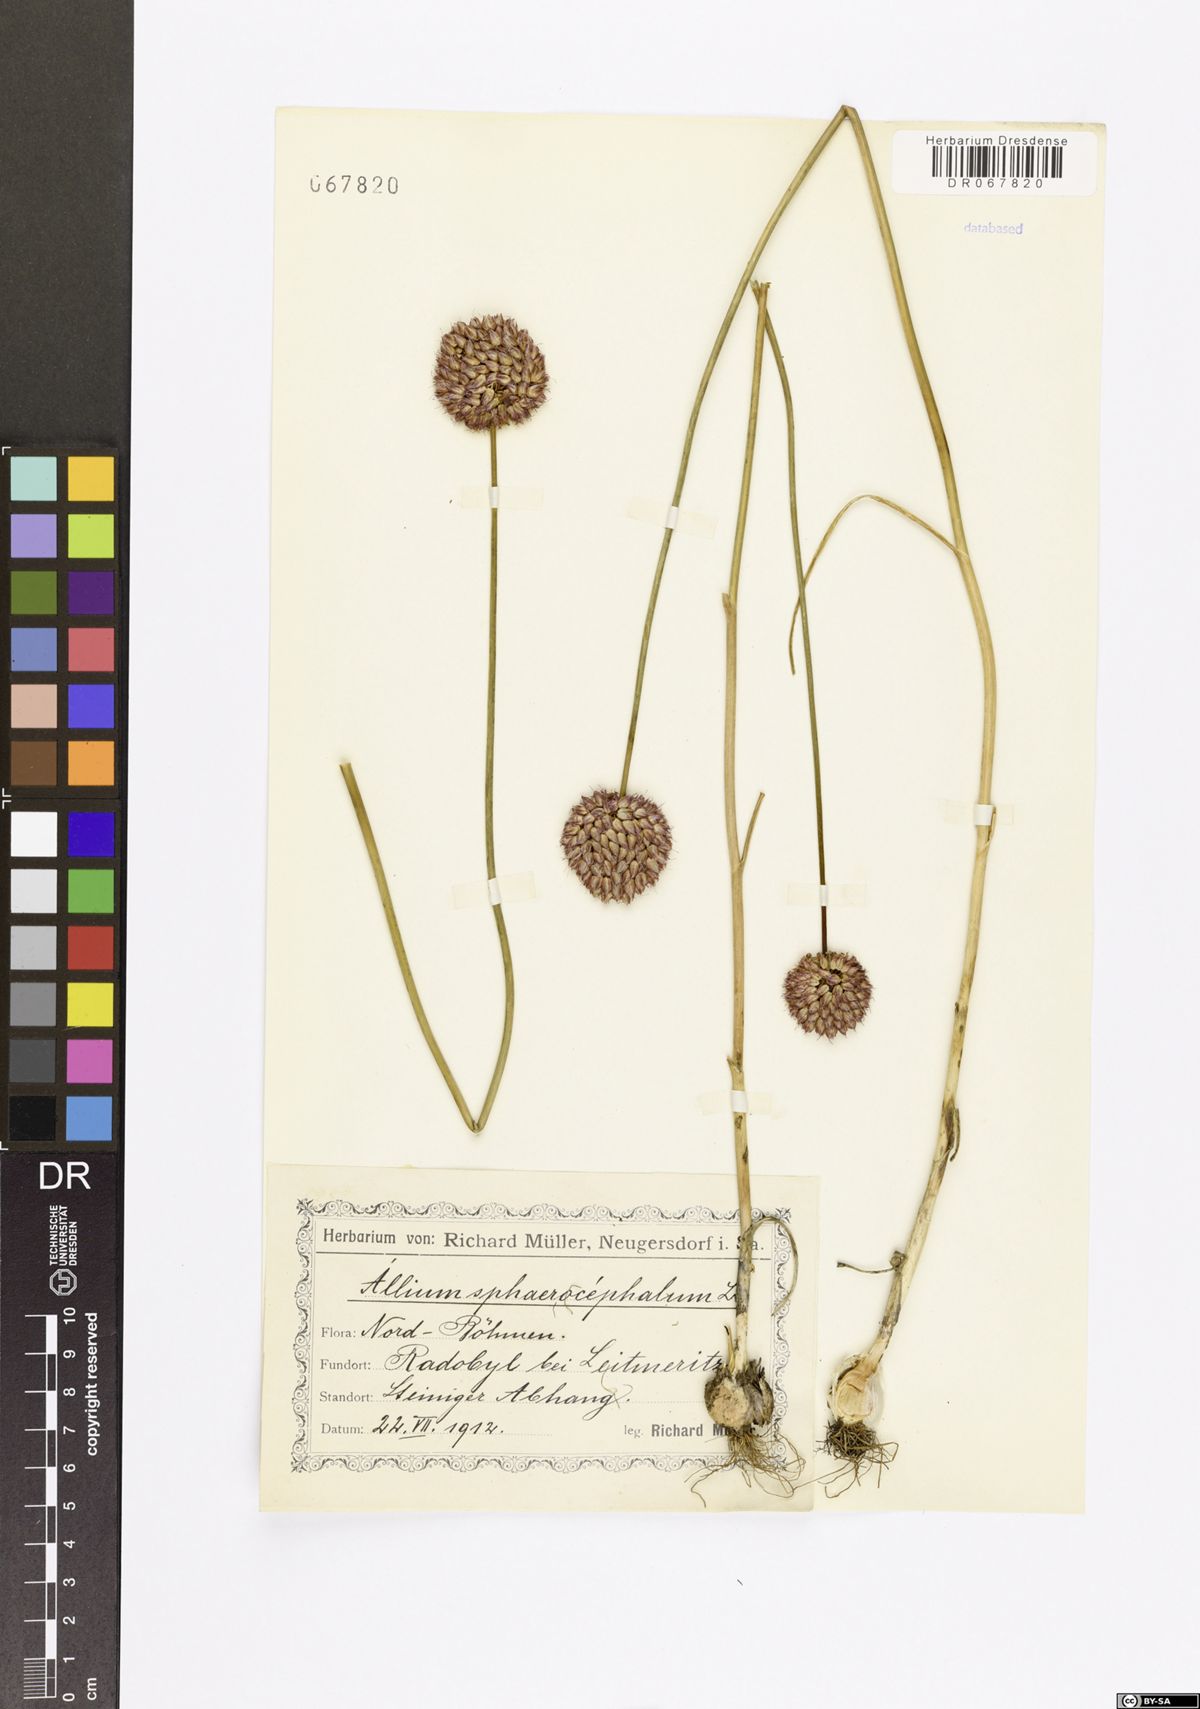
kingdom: Plantae
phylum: Tracheophyta
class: Liliopsida
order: Asparagales
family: Amaryllidaceae
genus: Allium
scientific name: Allium sphaerocephalon
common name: Round-headed leek
